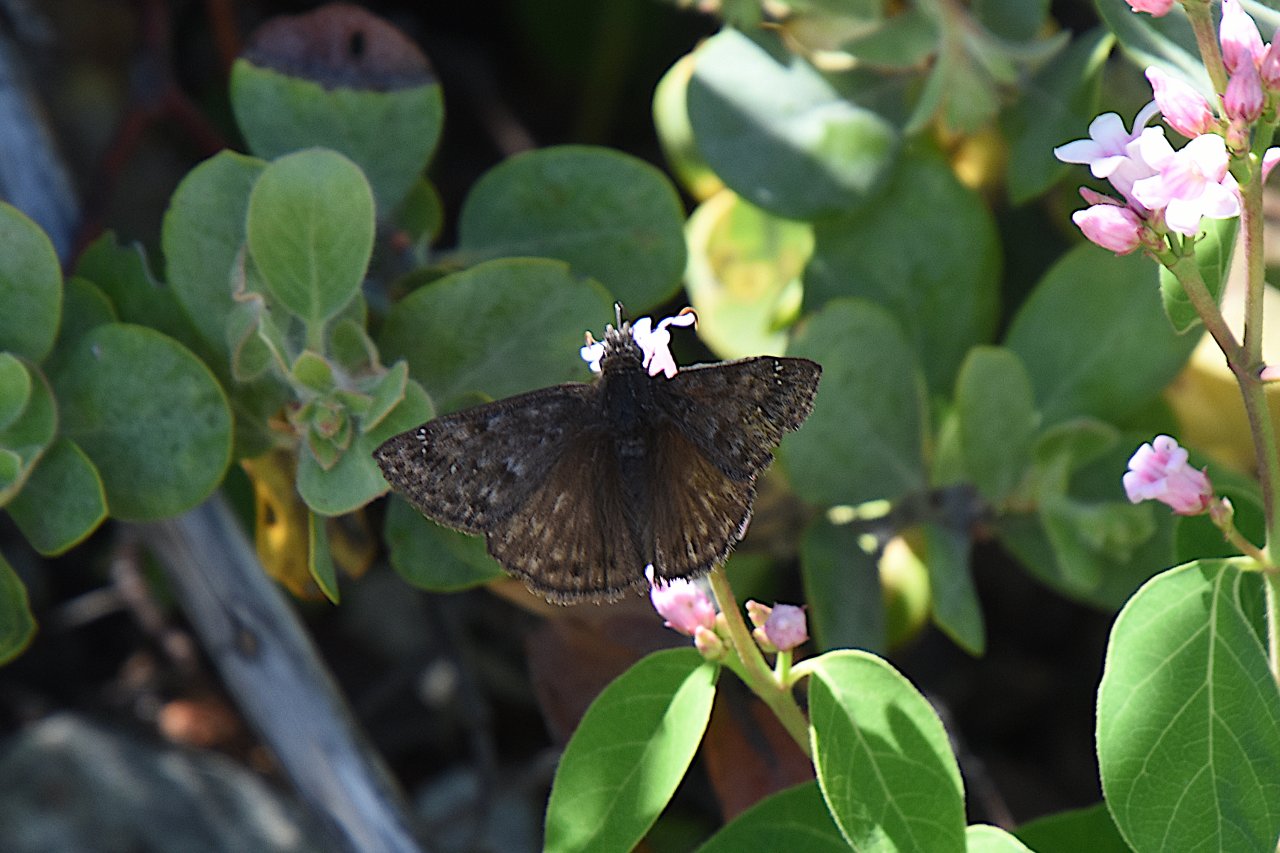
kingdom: Animalia
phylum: Arthropoda
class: Insecta
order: Lepidoptera
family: Hesperiidae
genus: Gesta
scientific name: Gesta
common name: Persius Duskywing
